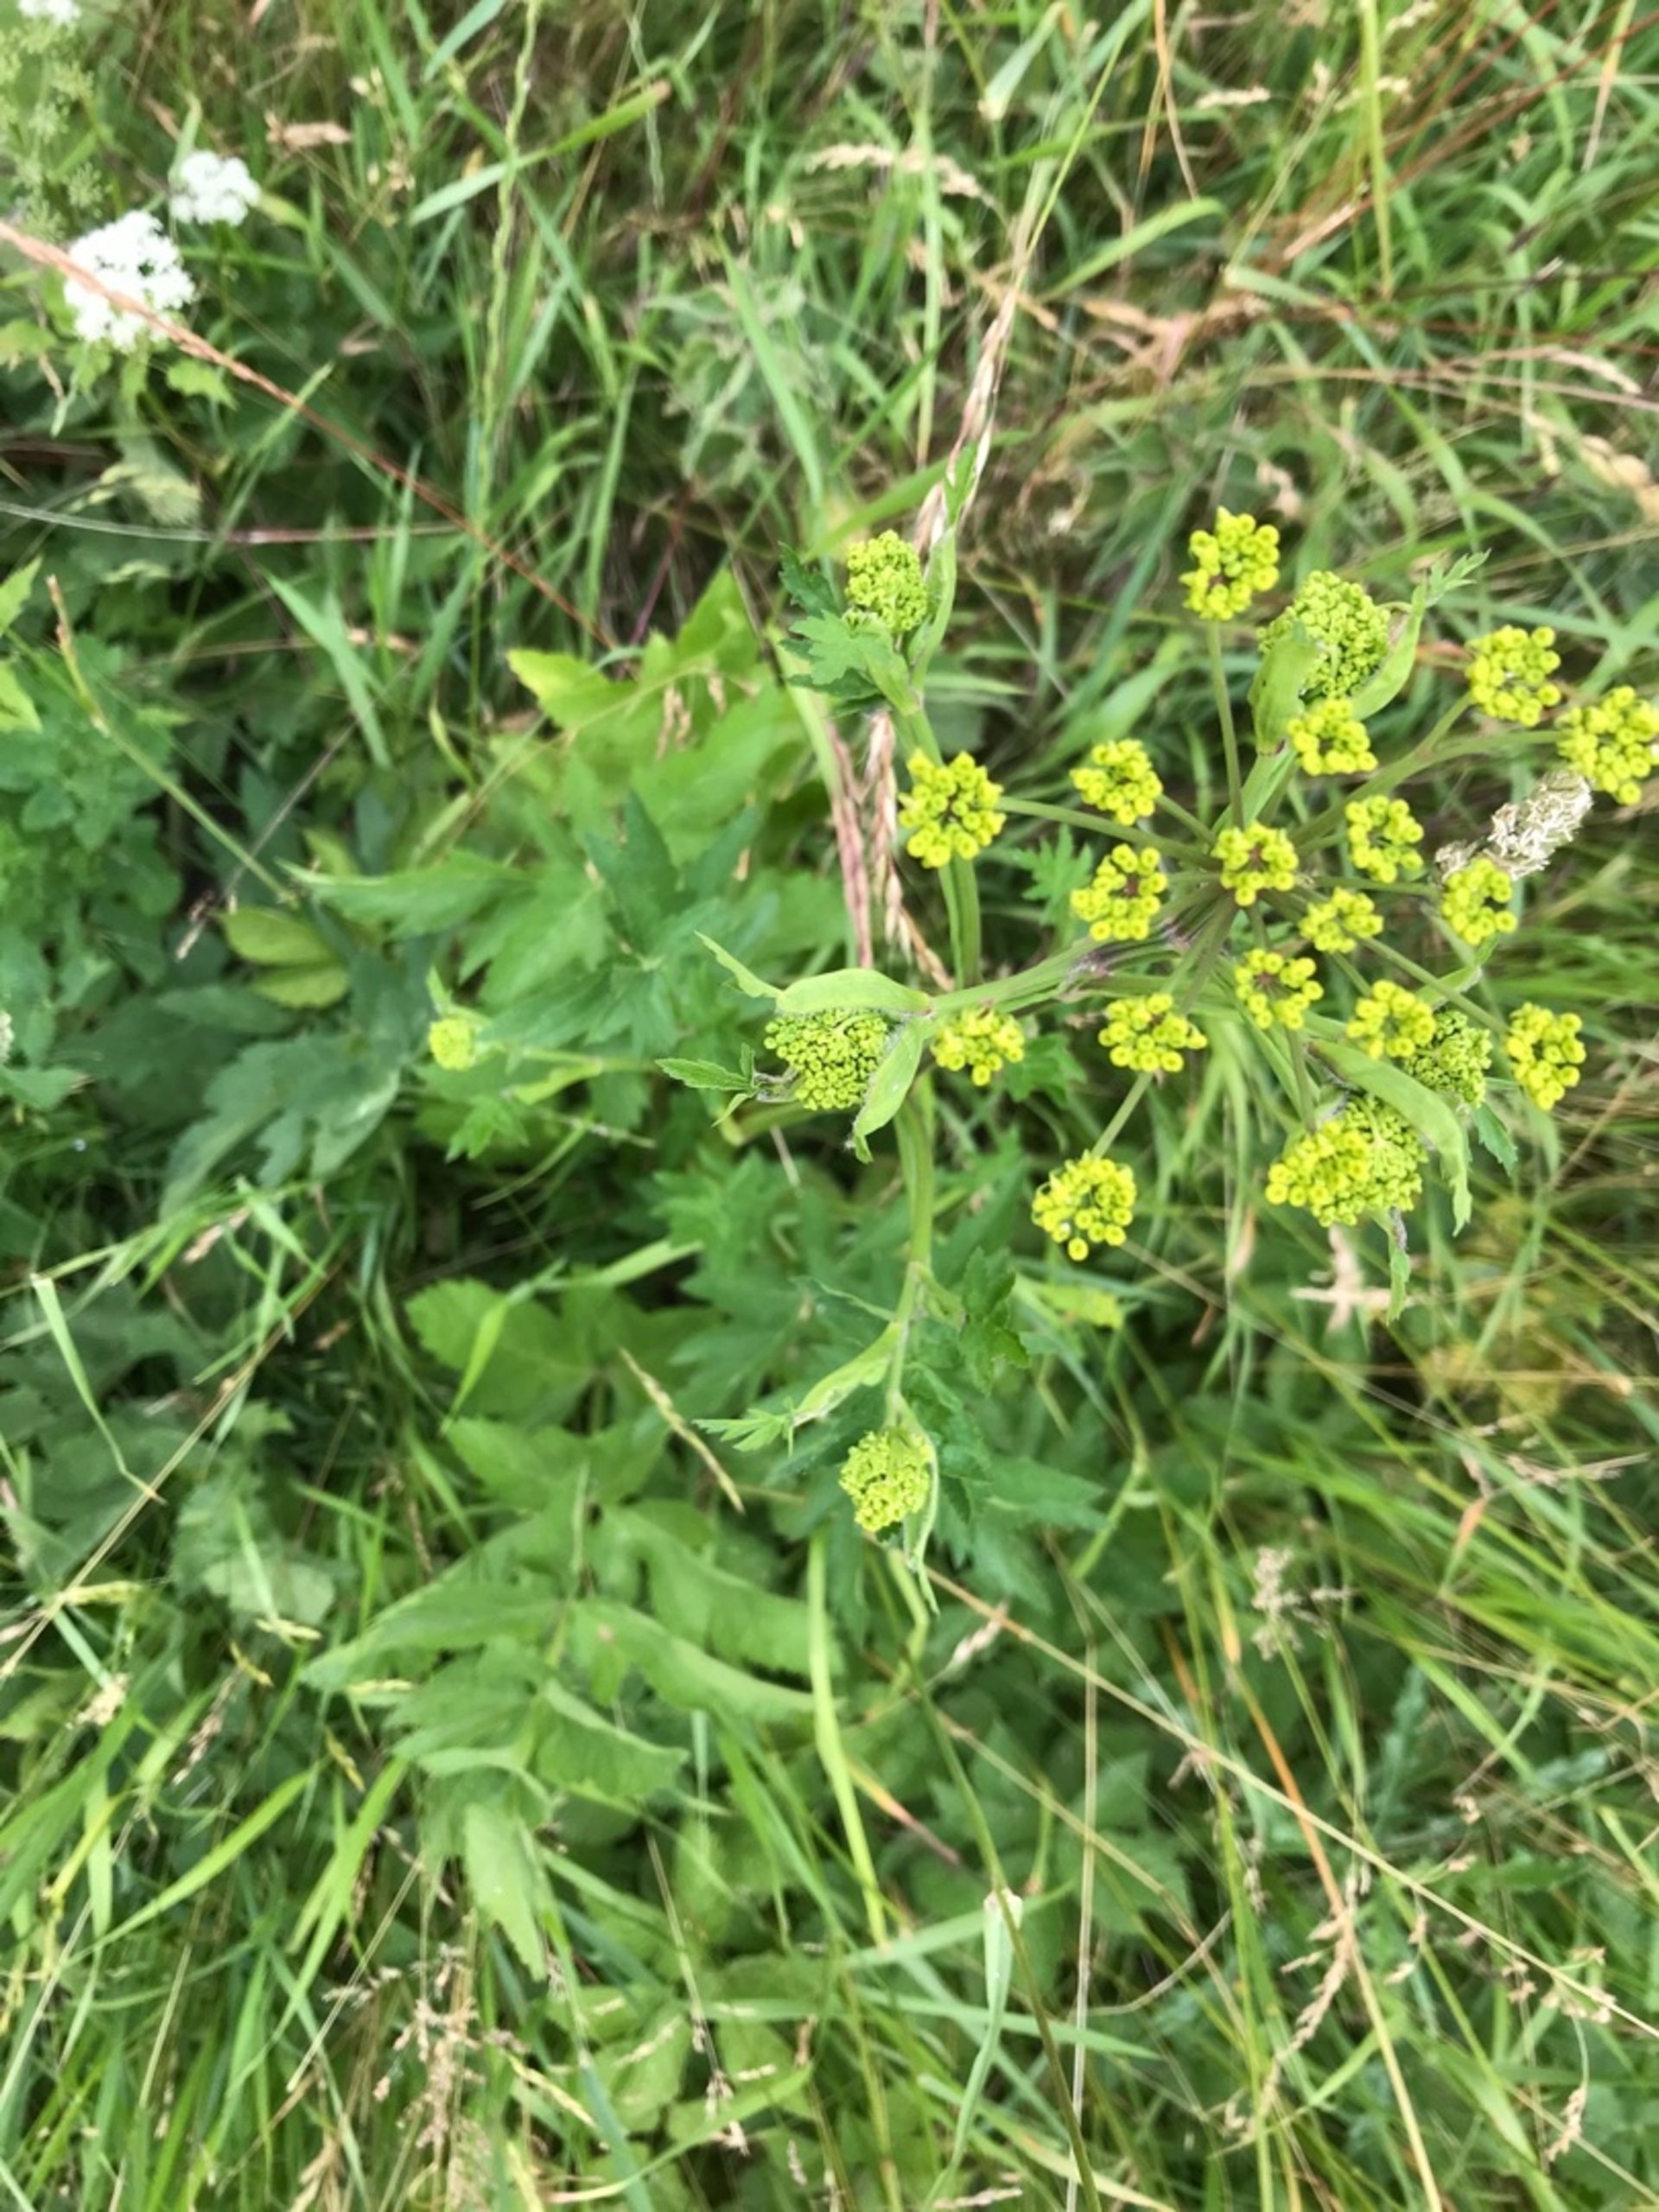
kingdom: Plantae
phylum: Tracheophyta
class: Magnoliopsida
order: Apiales
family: Apiaceae
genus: Pastinaca
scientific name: Pastinaca sativa
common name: Pastinak
